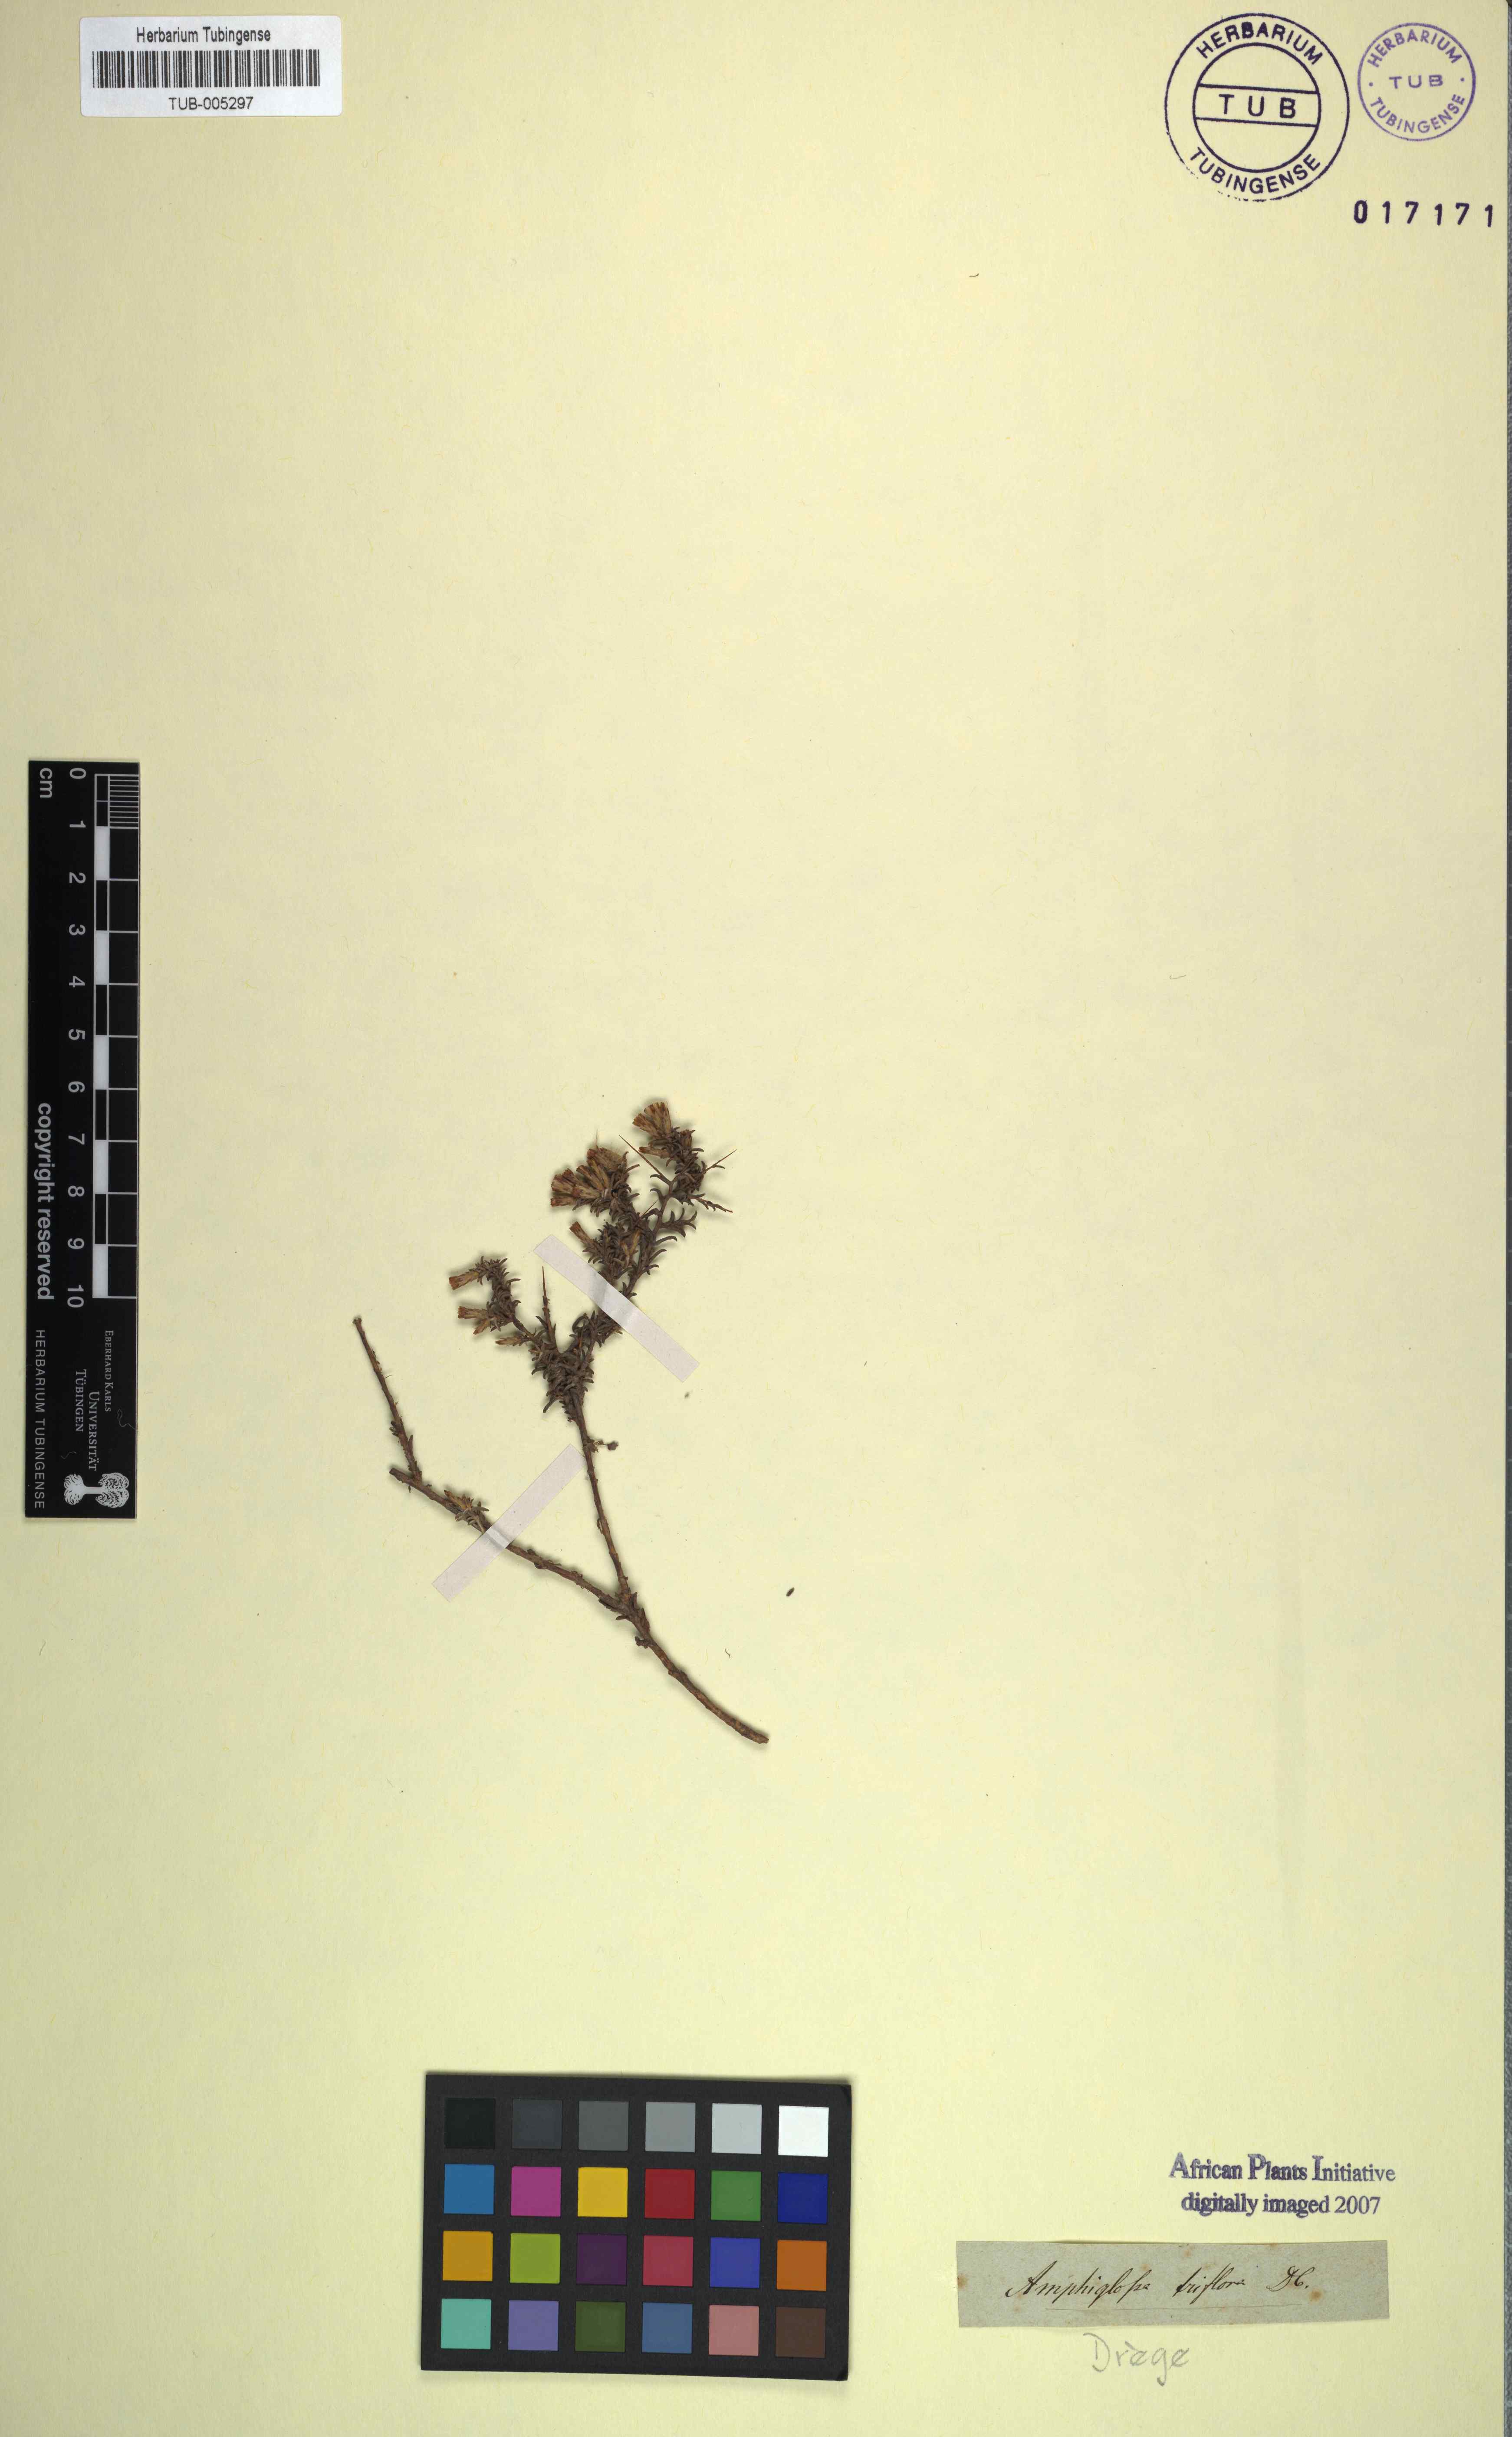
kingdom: Plantae
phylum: Tracheophyta
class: Magnoliopsida
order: Asterales
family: Asteraceae
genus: Pterothrix
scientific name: Pterothrix spinescens
